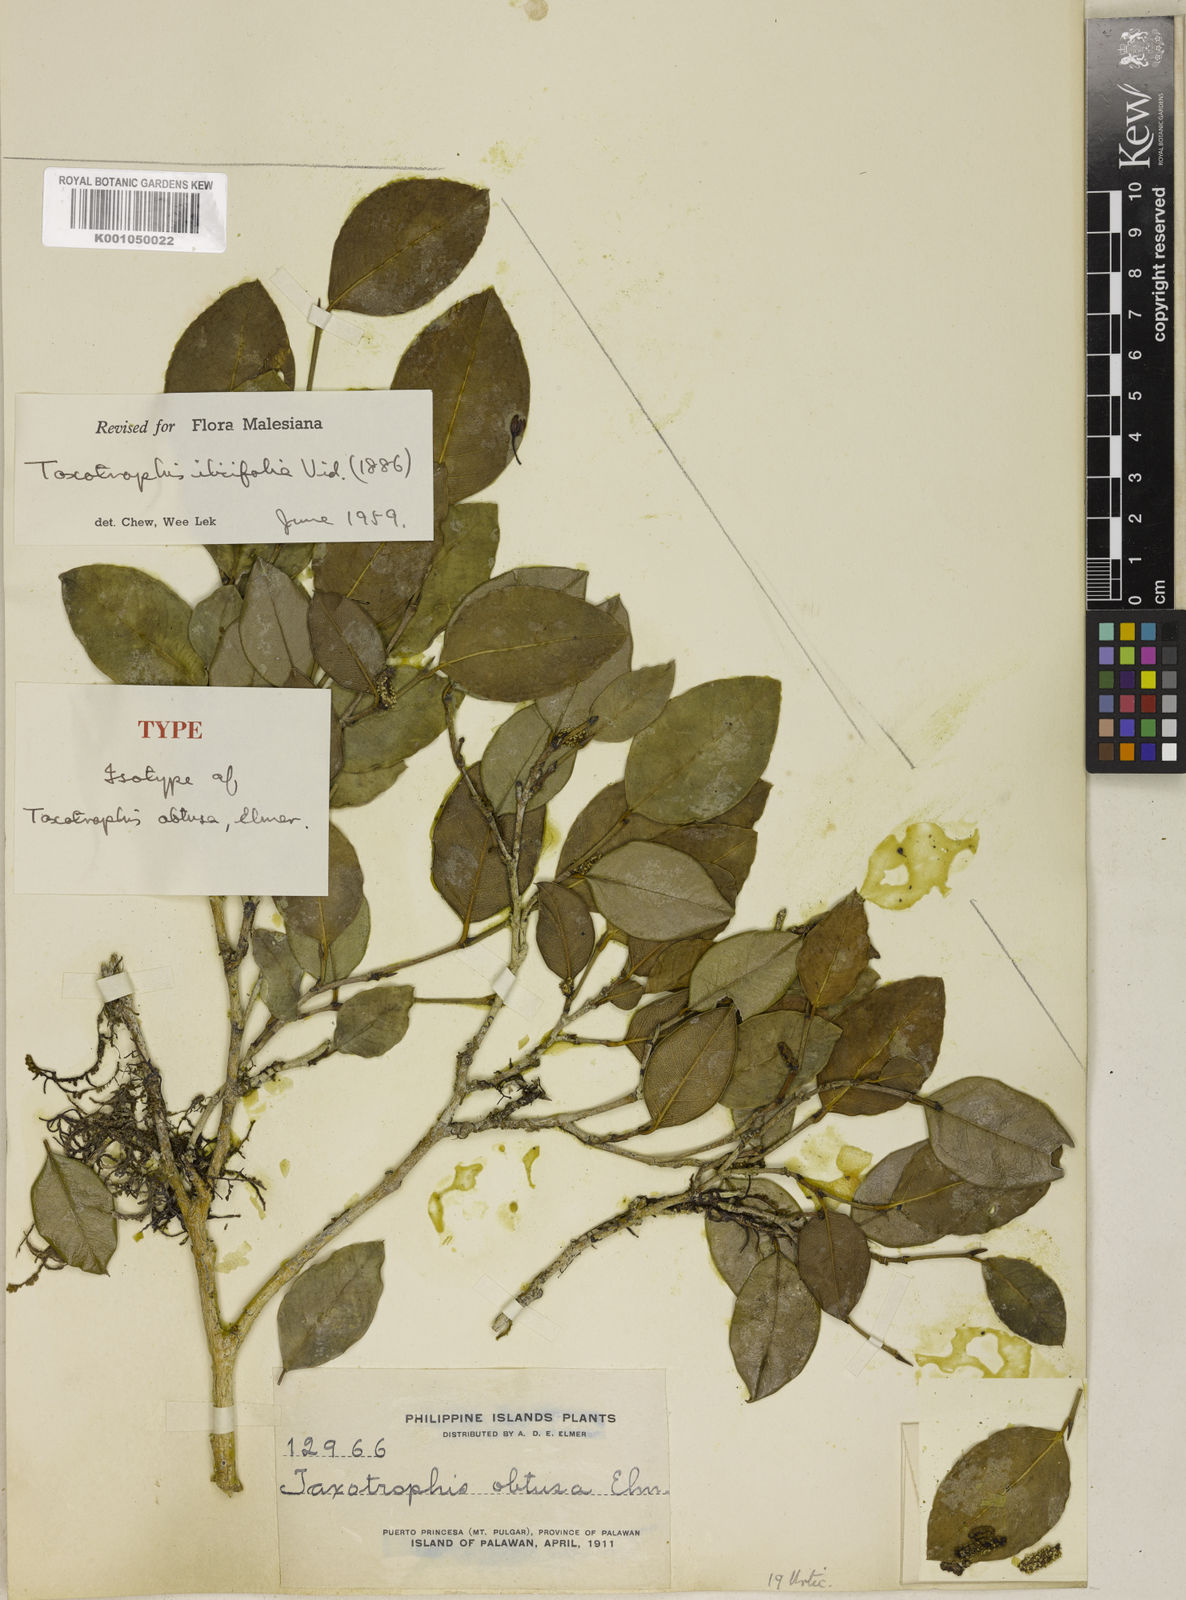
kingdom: Plantae
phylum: Tracheophyta
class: Magnoliopsida
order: Rosales
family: Moraceae
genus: Taxotrophis
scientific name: Taxotrophis ilicifolia
